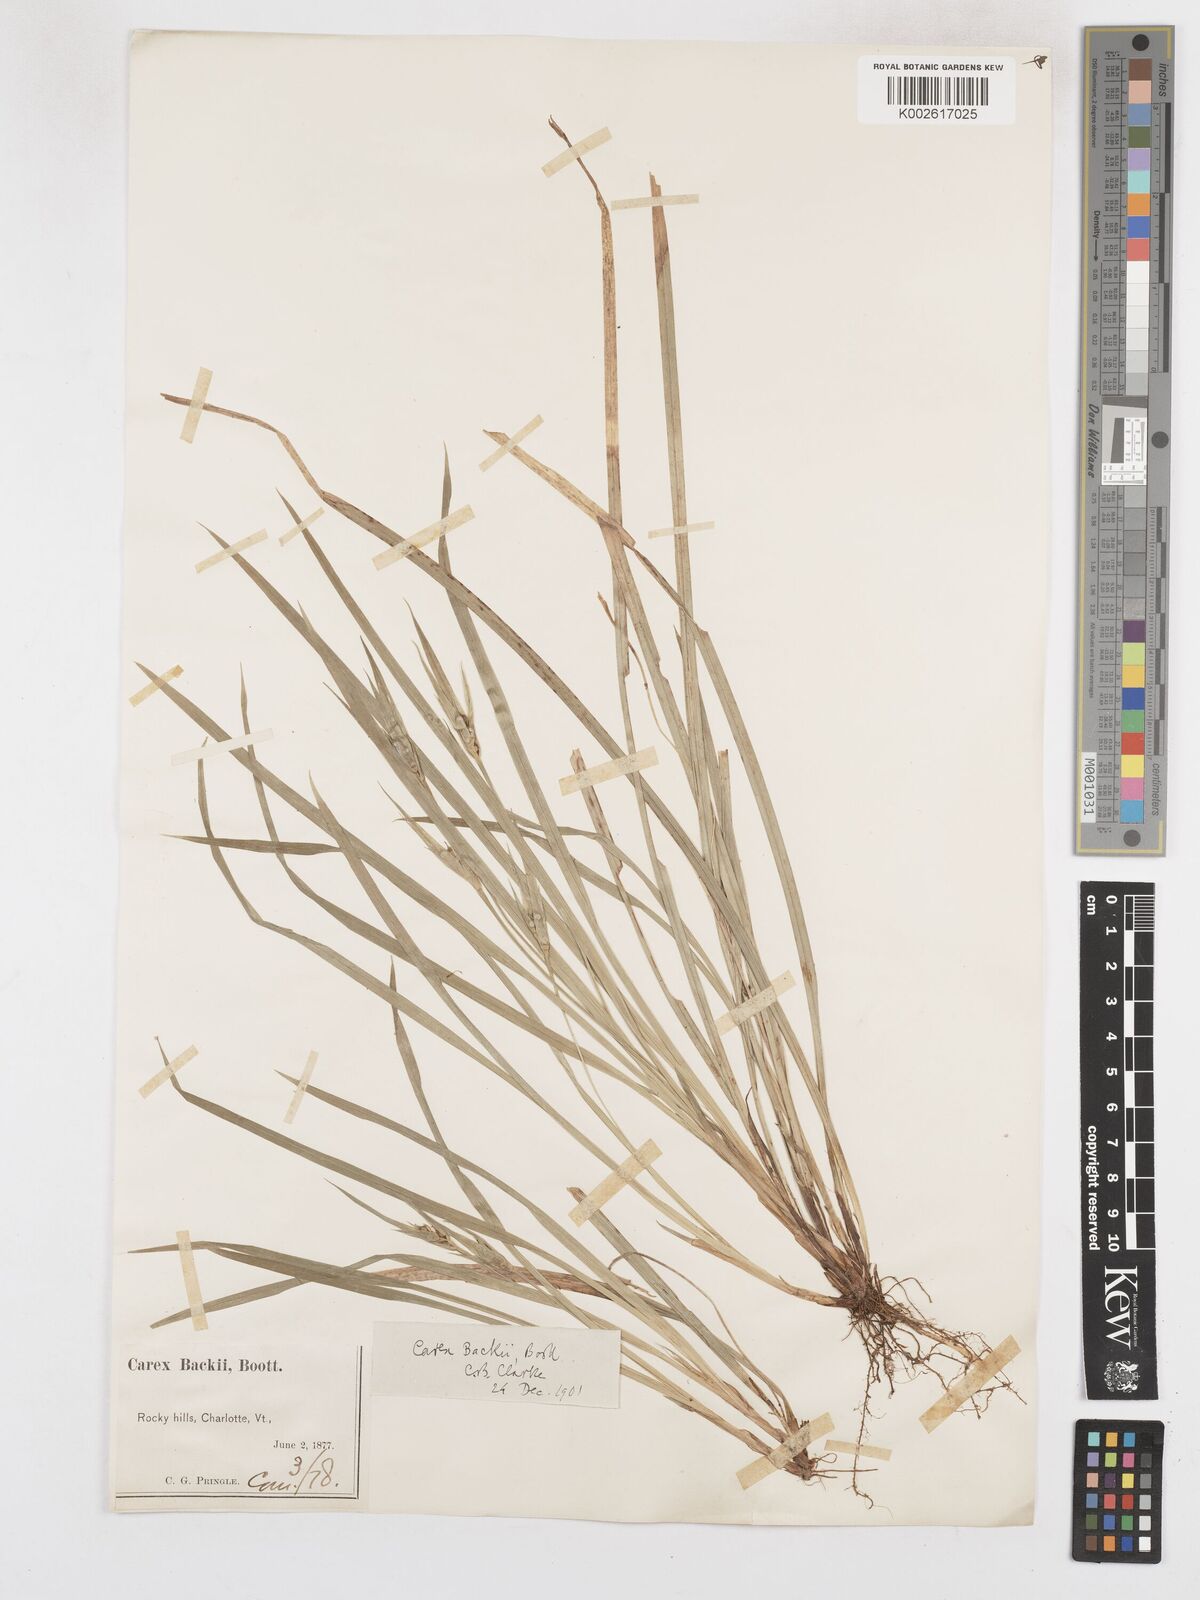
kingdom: Plantae
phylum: Tracheophyta
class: Liliopsida
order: Poales
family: Cyperaceae
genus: Carex
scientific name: Carex backii
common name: Back's sedge
